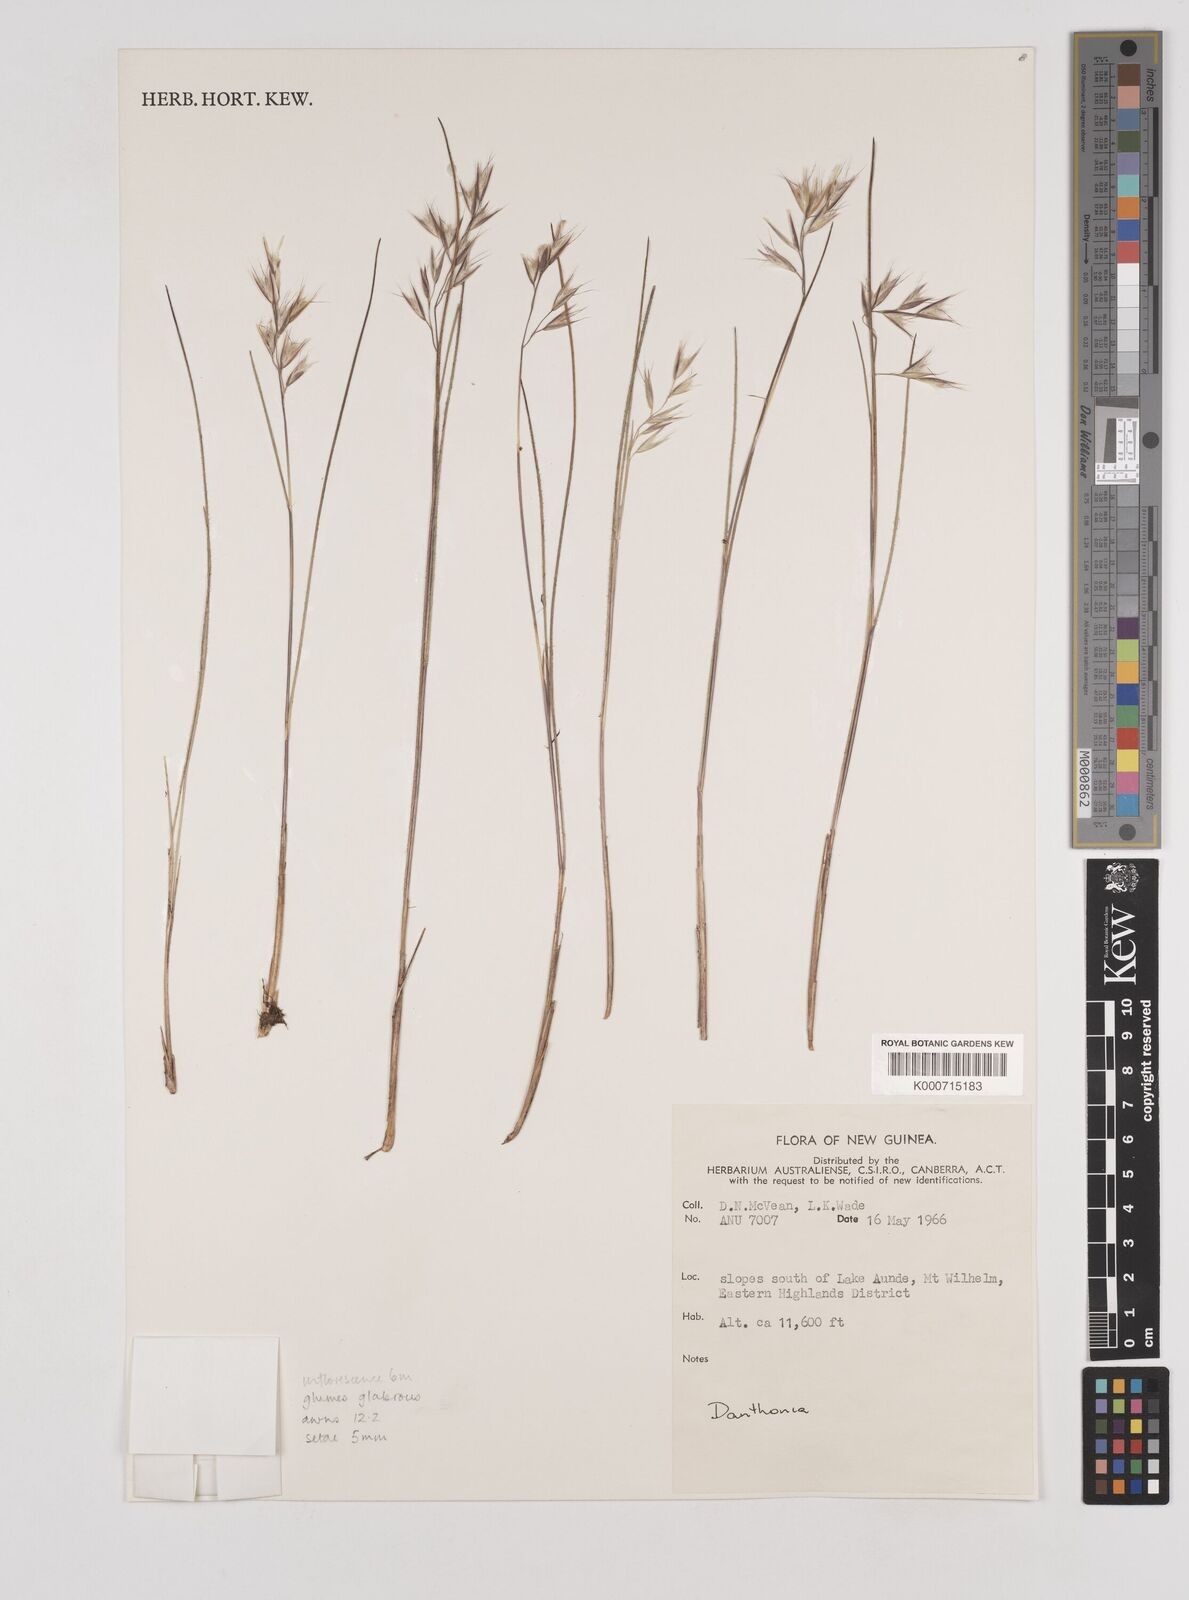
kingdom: Plantae
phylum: Tracheophyta
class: Liliopsida
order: Poales
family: Poaceae
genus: Rytidosperma
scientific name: Rytidosperma vestitum
